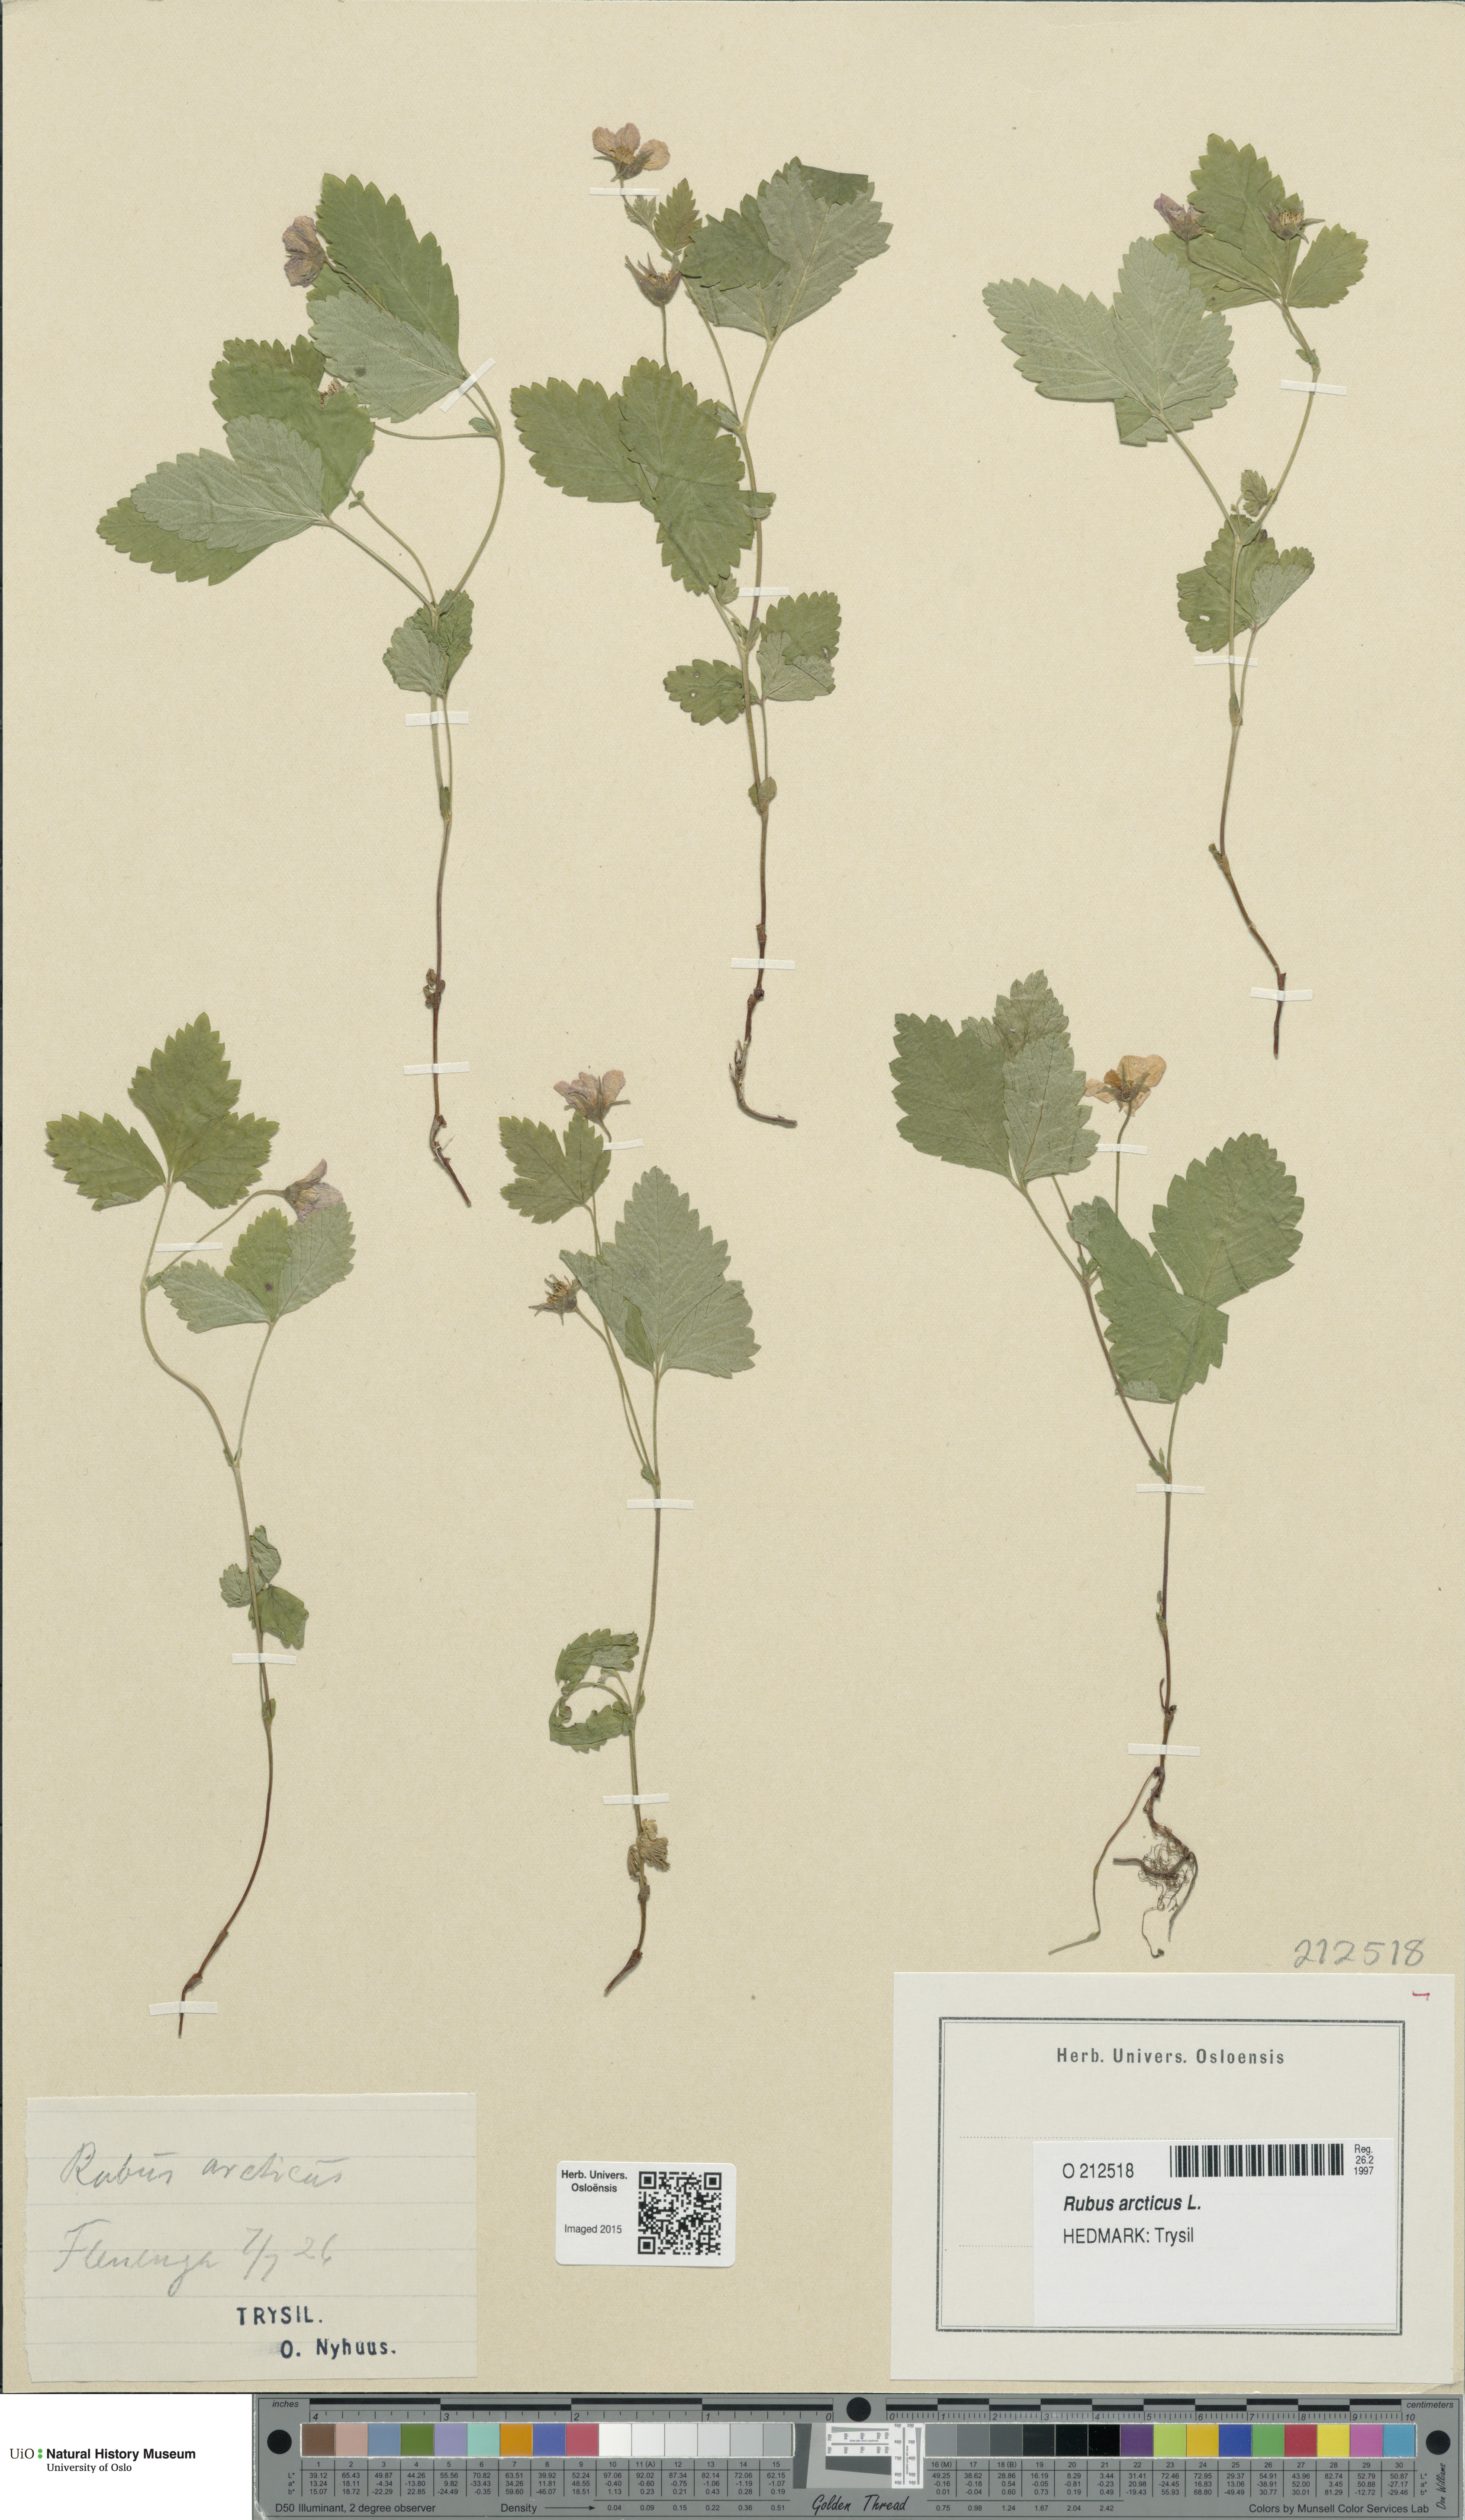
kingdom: Plantae
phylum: Tracheophyta
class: Magnoliopsida
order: Rosales
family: Rosaceae
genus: Rubus
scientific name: Rubus arcticus
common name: Arctic bramble
